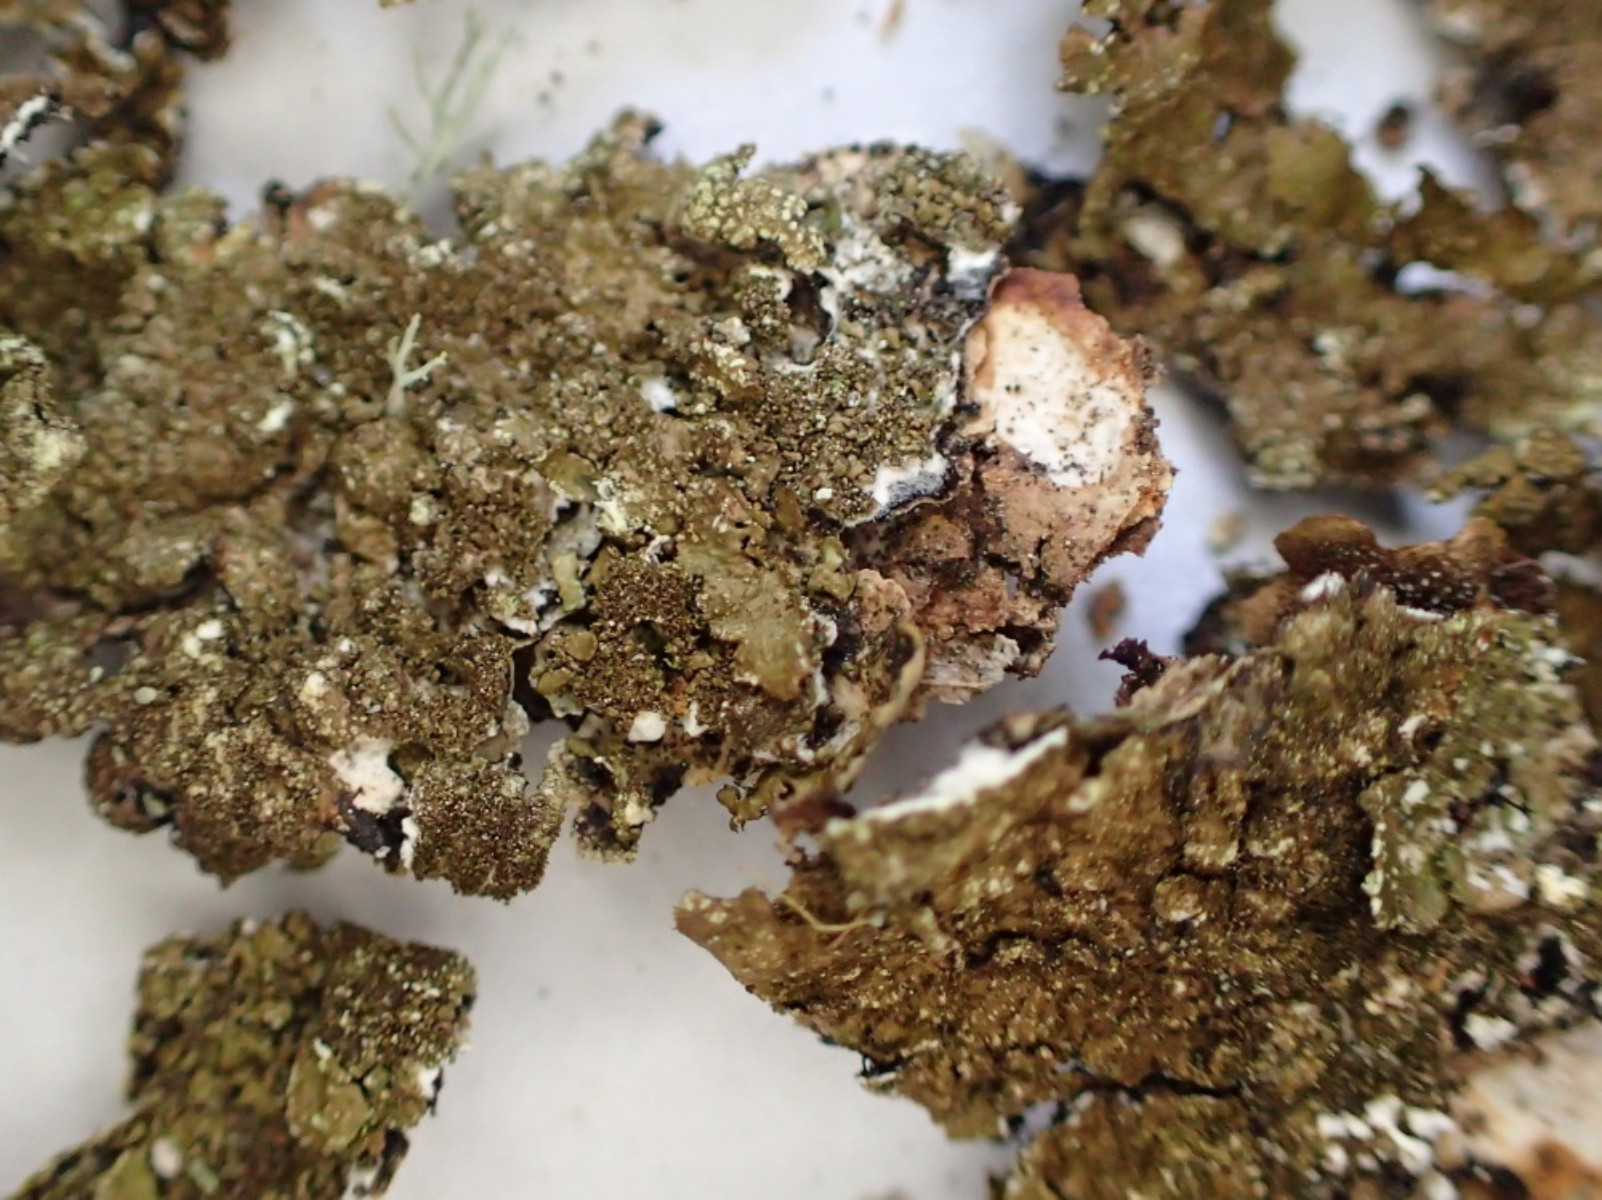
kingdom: Fungi
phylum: Ascomycota
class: Lecanoromycetes
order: Lecanorales
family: Parmeliaceae
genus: Melanelixia
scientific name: Melanelixia subaurifera
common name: guldpudret skållav
